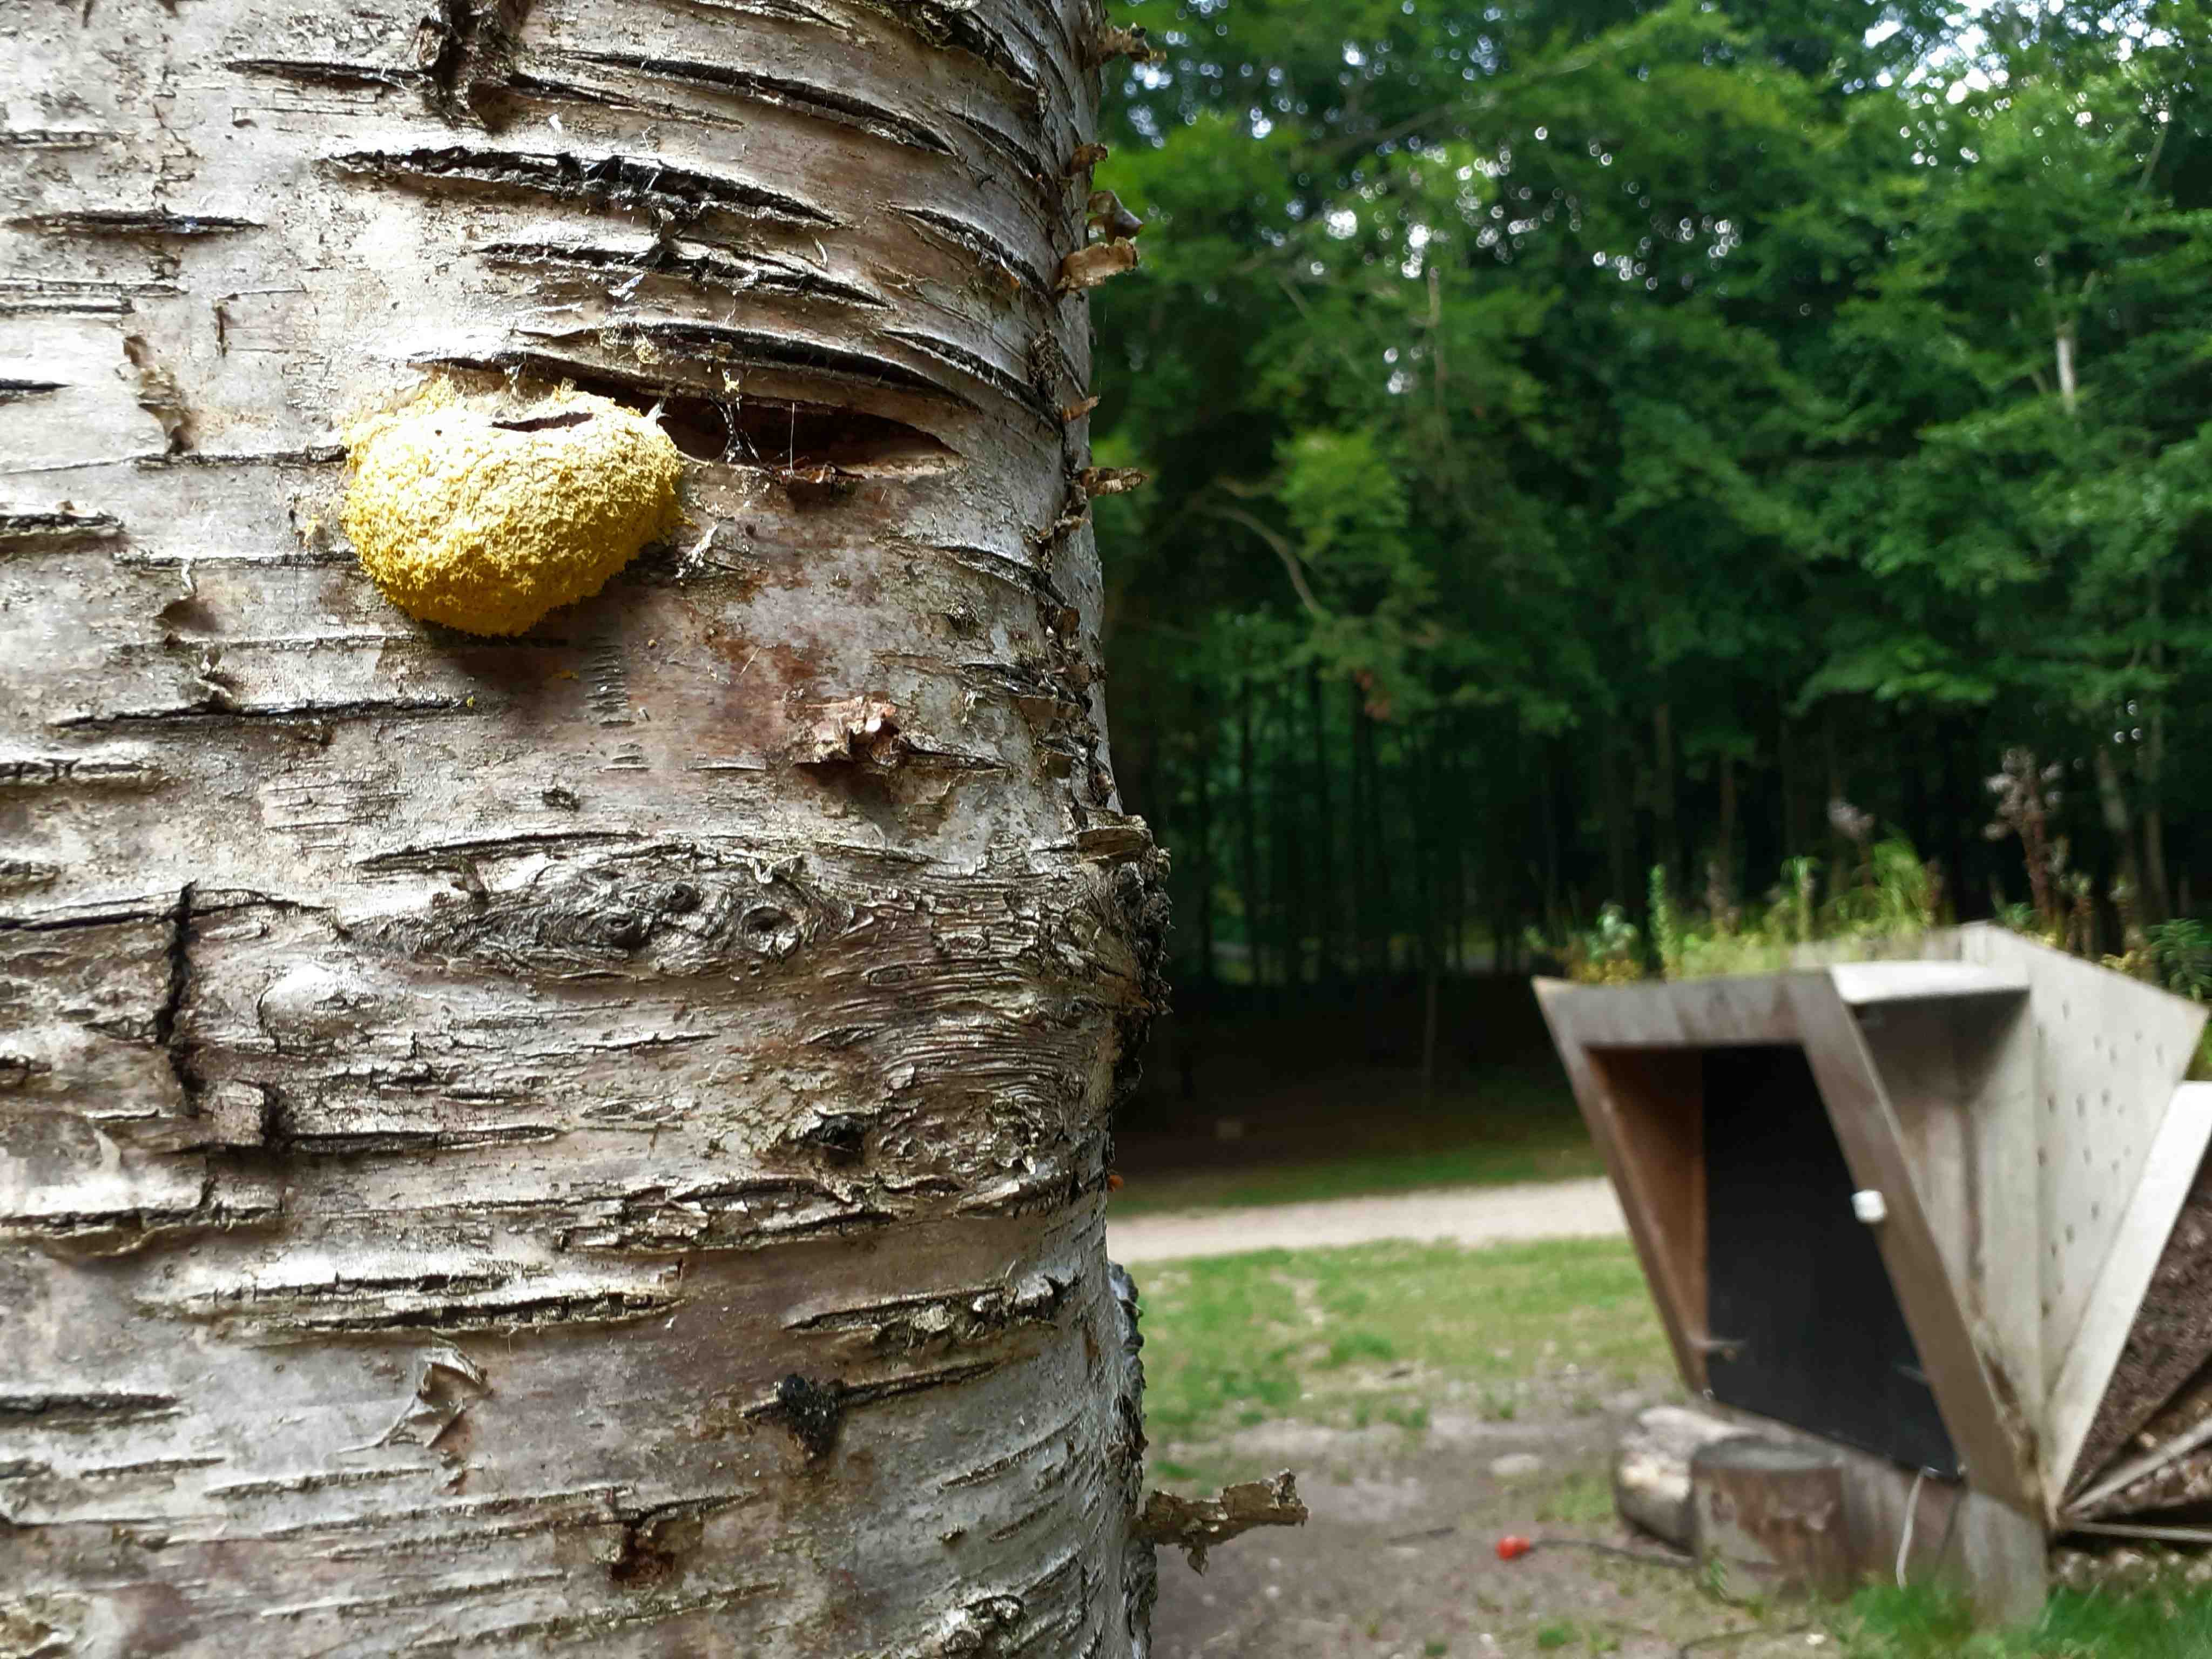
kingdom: Protozoa
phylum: Mycetozoa
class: Myxomycetes
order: Physarales
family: Physaraceae
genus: Fuligo
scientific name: Fuligo septica
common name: gul troldsmør
